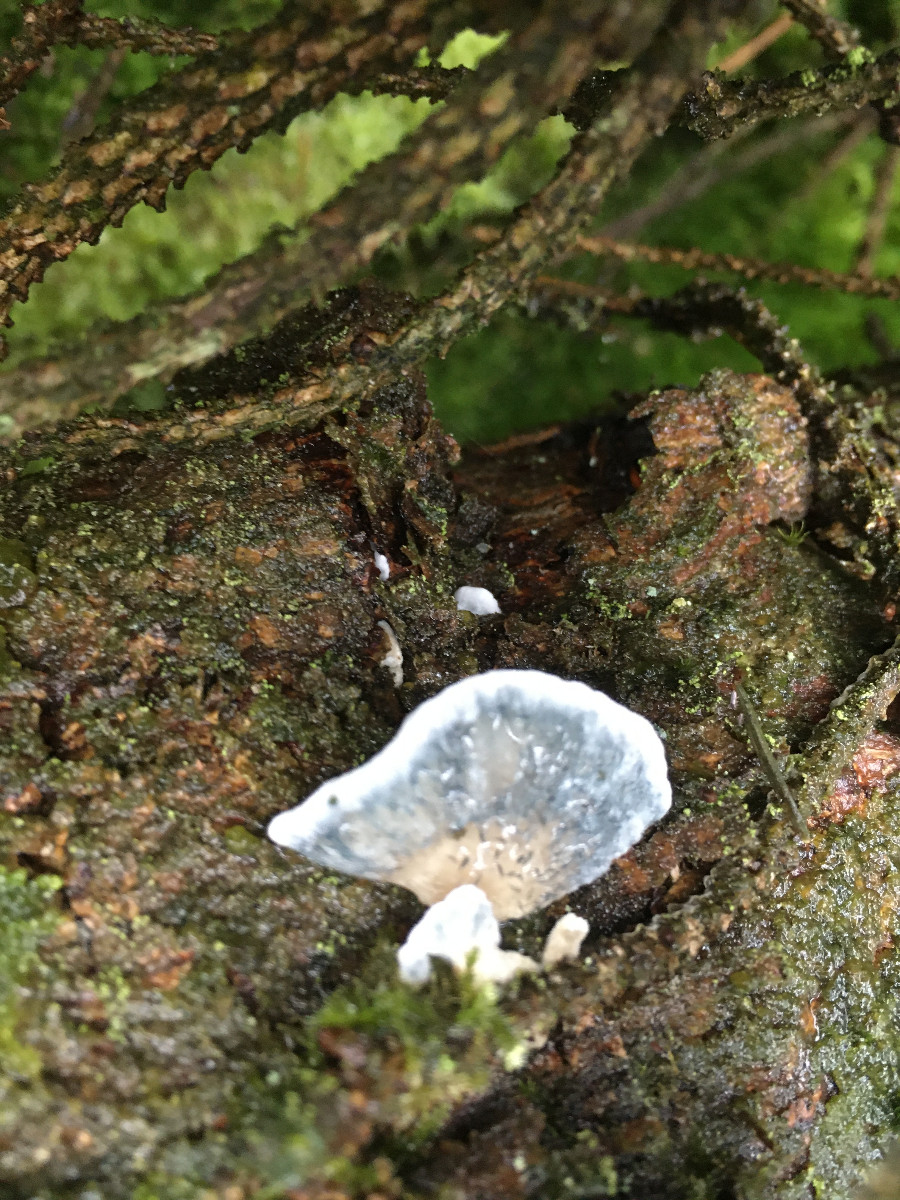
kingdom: Fungi
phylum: Basidiomycota
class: Agaricomycetes
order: Polyporales
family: Polyporaceae
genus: Cyanosporus
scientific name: Cyanosporus caesius
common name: blålig kødporesvamp
